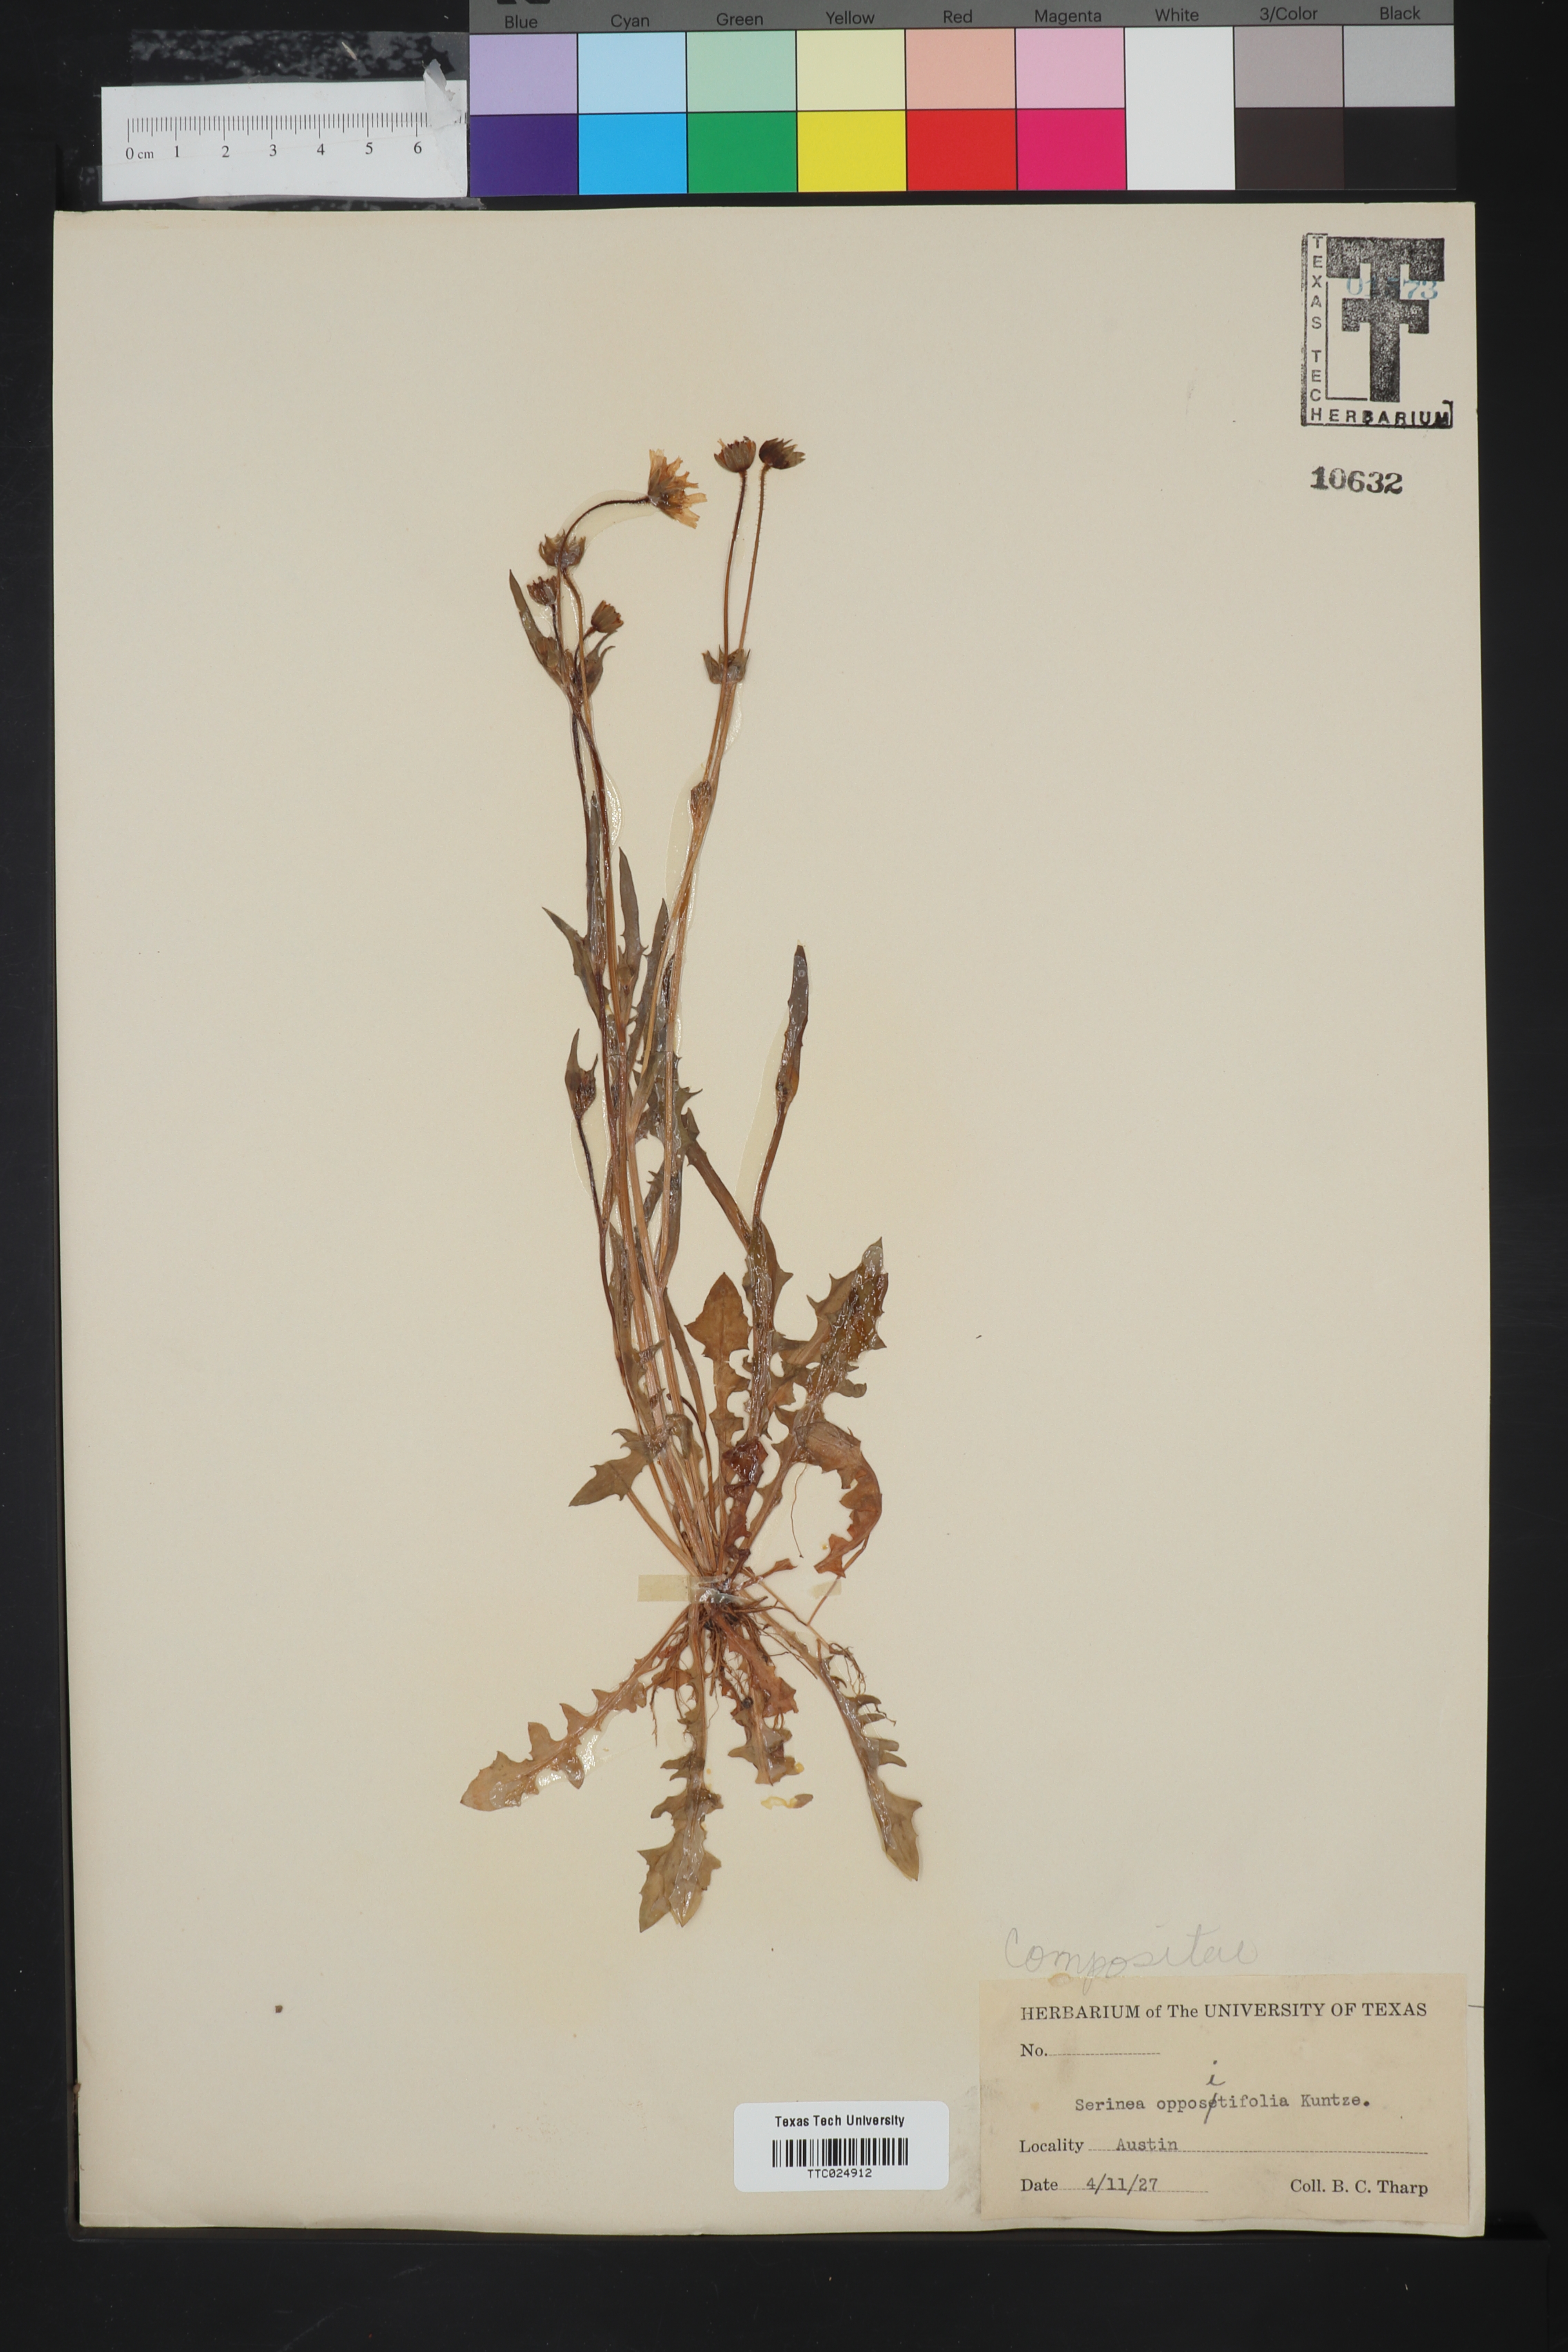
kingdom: Plantae
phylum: Tracheophyta
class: Magnoliopsida
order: Asterales
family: Asteraceae
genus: Krigia
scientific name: Krigia cespitosa
